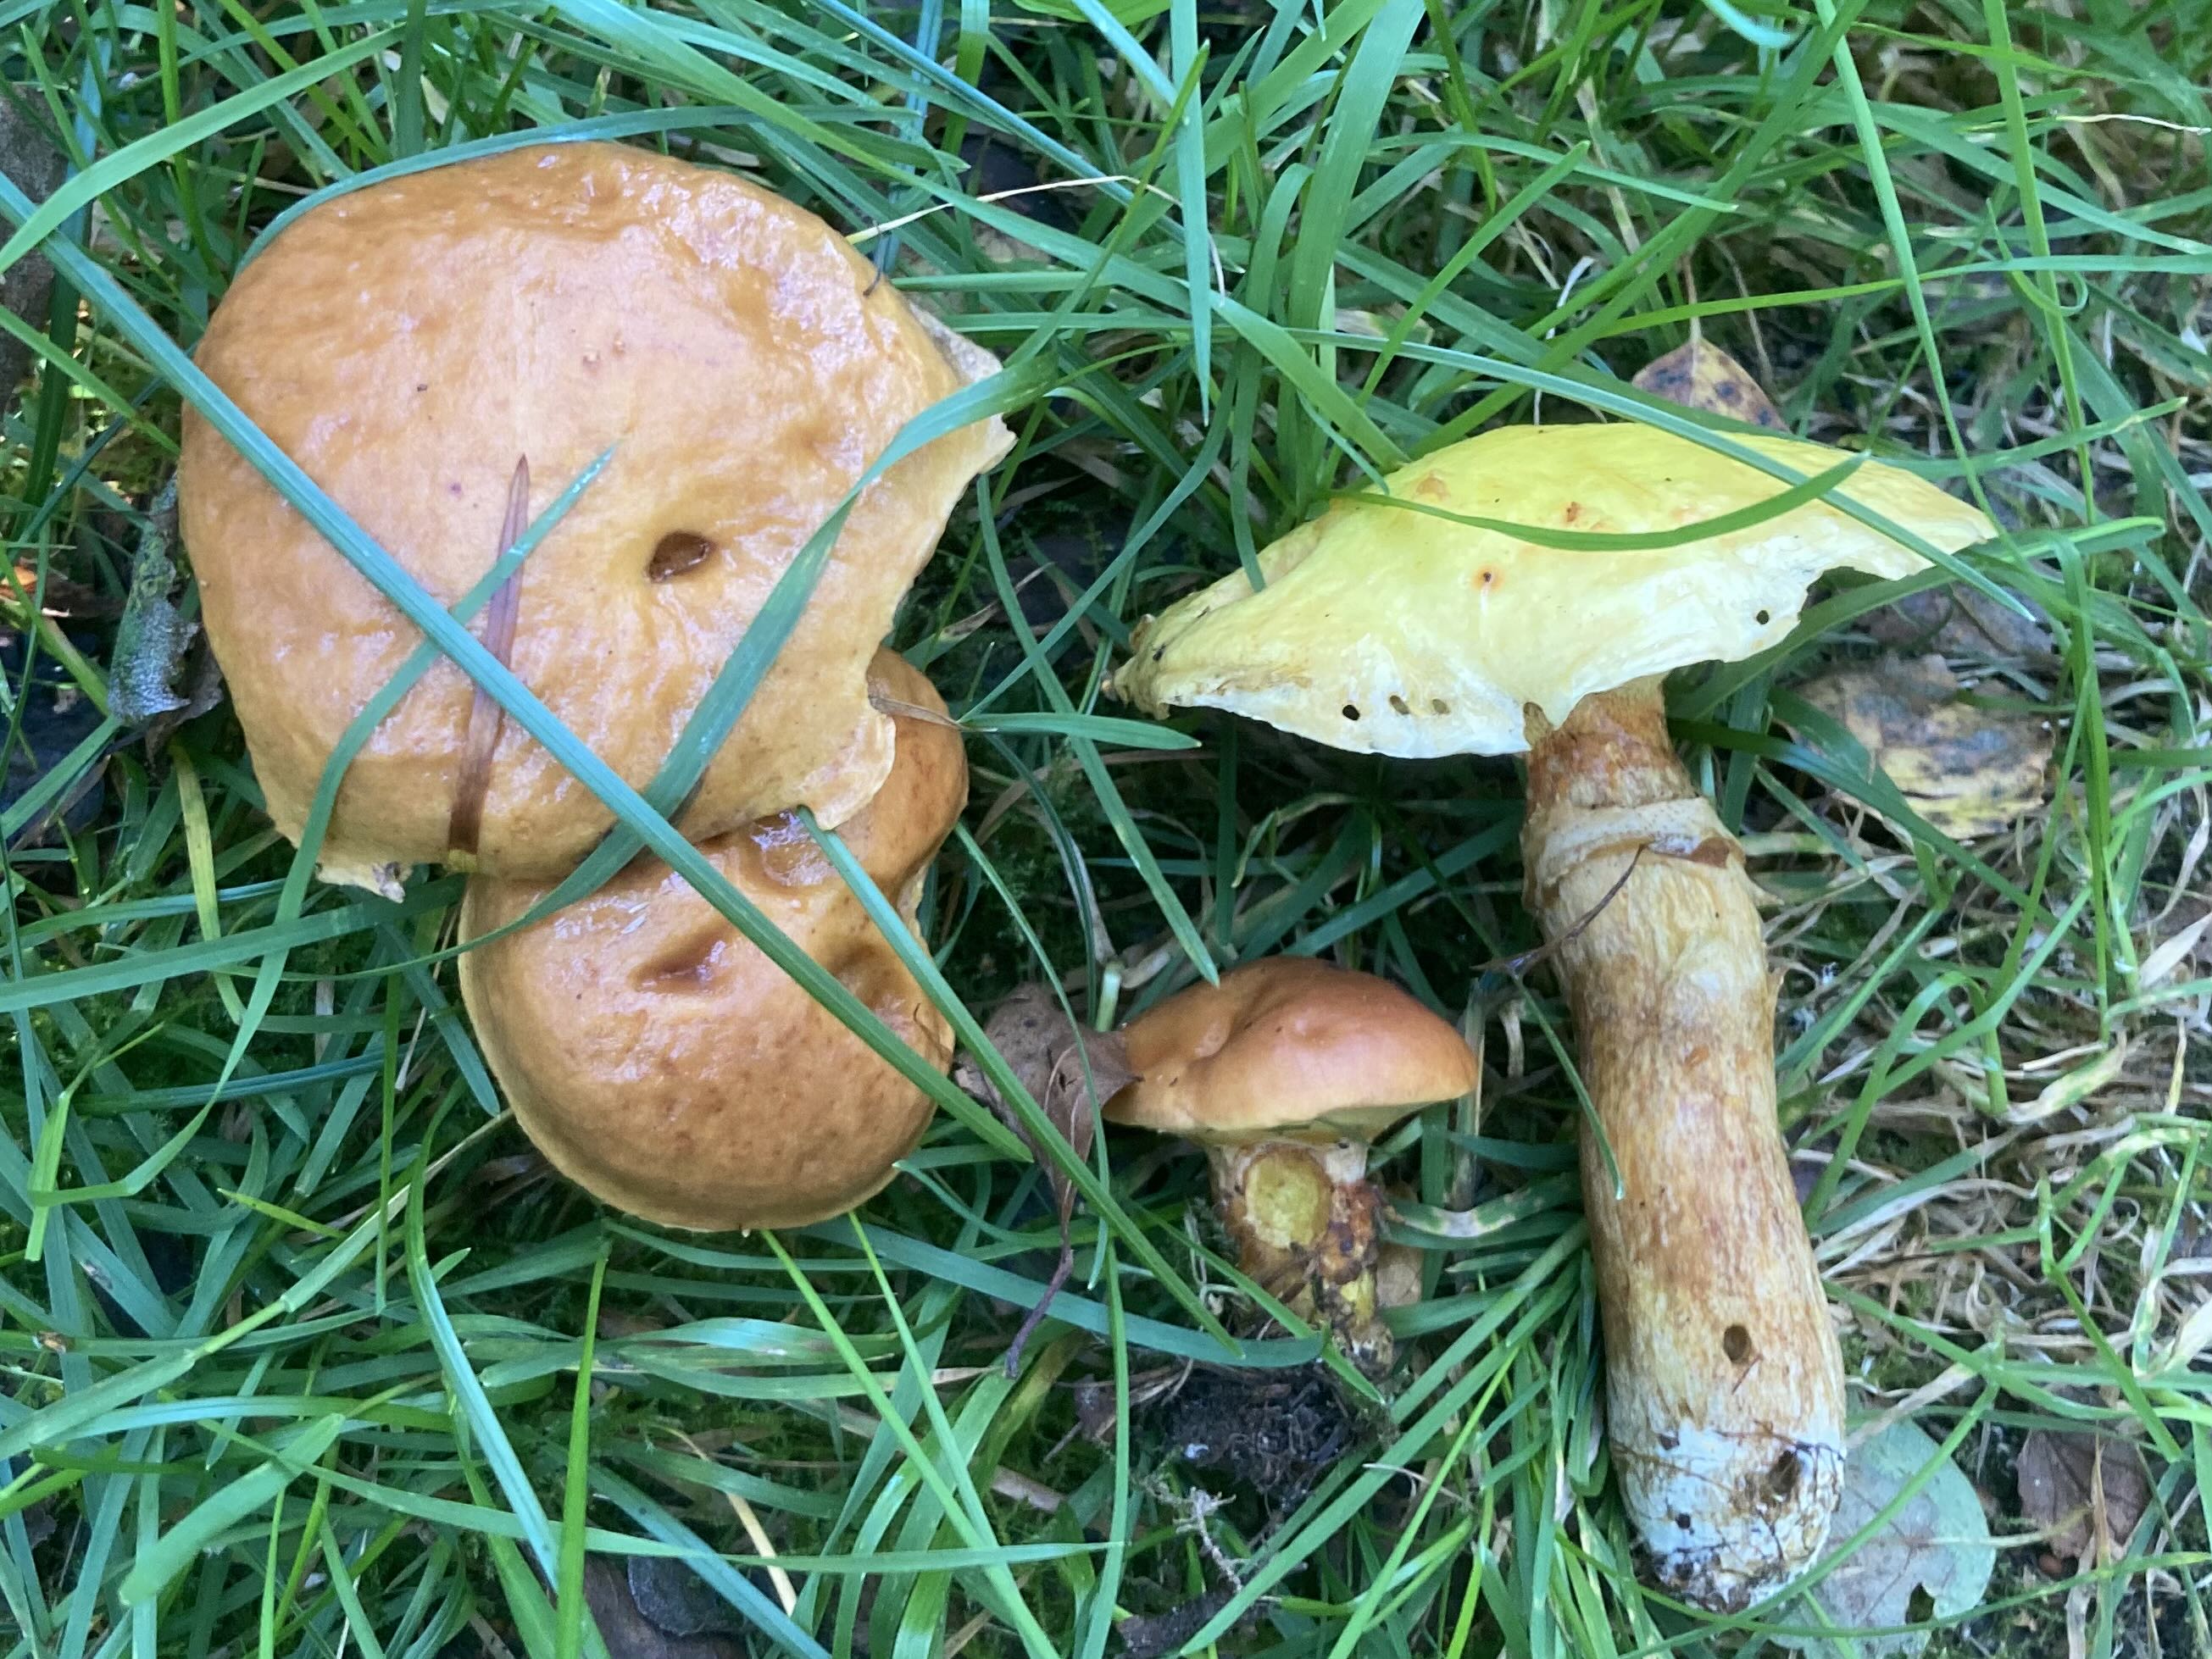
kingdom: Fungi
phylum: Basidiomycota
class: Agaricomycetes
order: Boletales
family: Suillaceae
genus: Suillus
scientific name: Suillus grevillei
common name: lærke-slimrørhat
